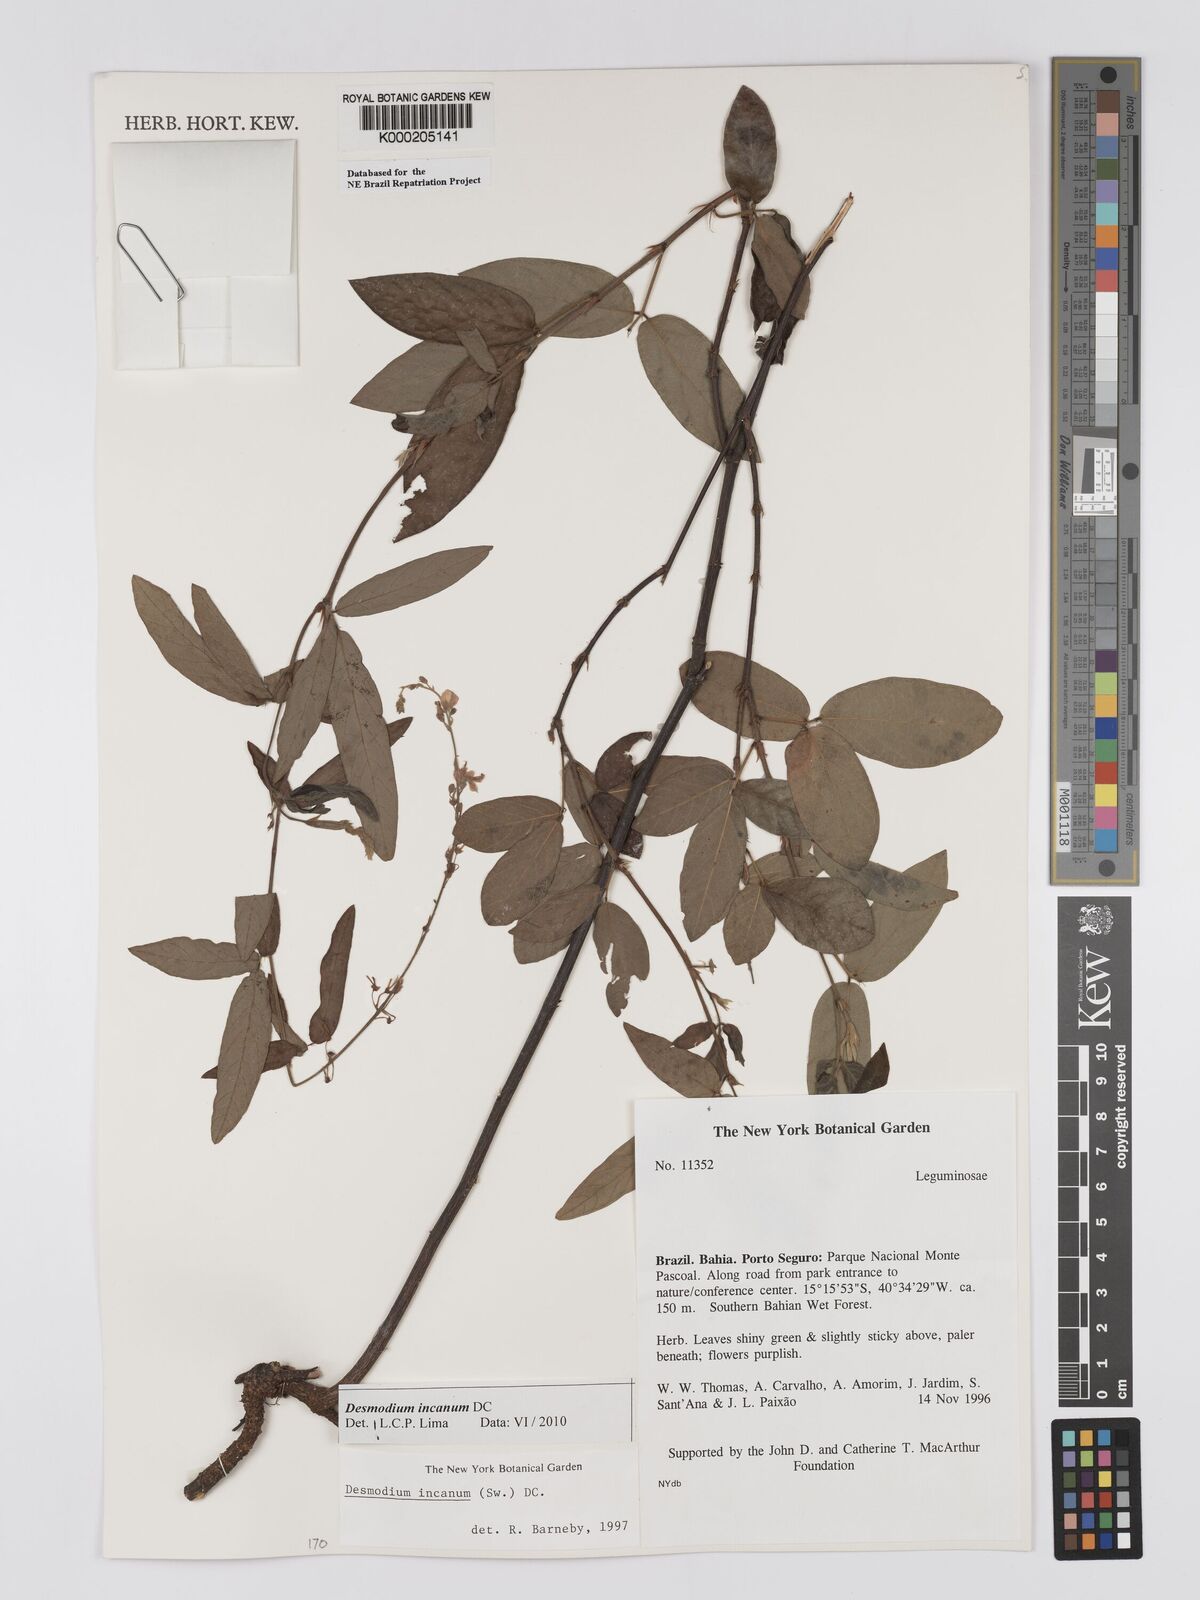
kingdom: Plantae
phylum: Tracheophyta
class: Magnoliopsida
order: Fabales
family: Fabaceae
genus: Desmodium
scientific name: Desmodium incanum
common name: Tickclover
